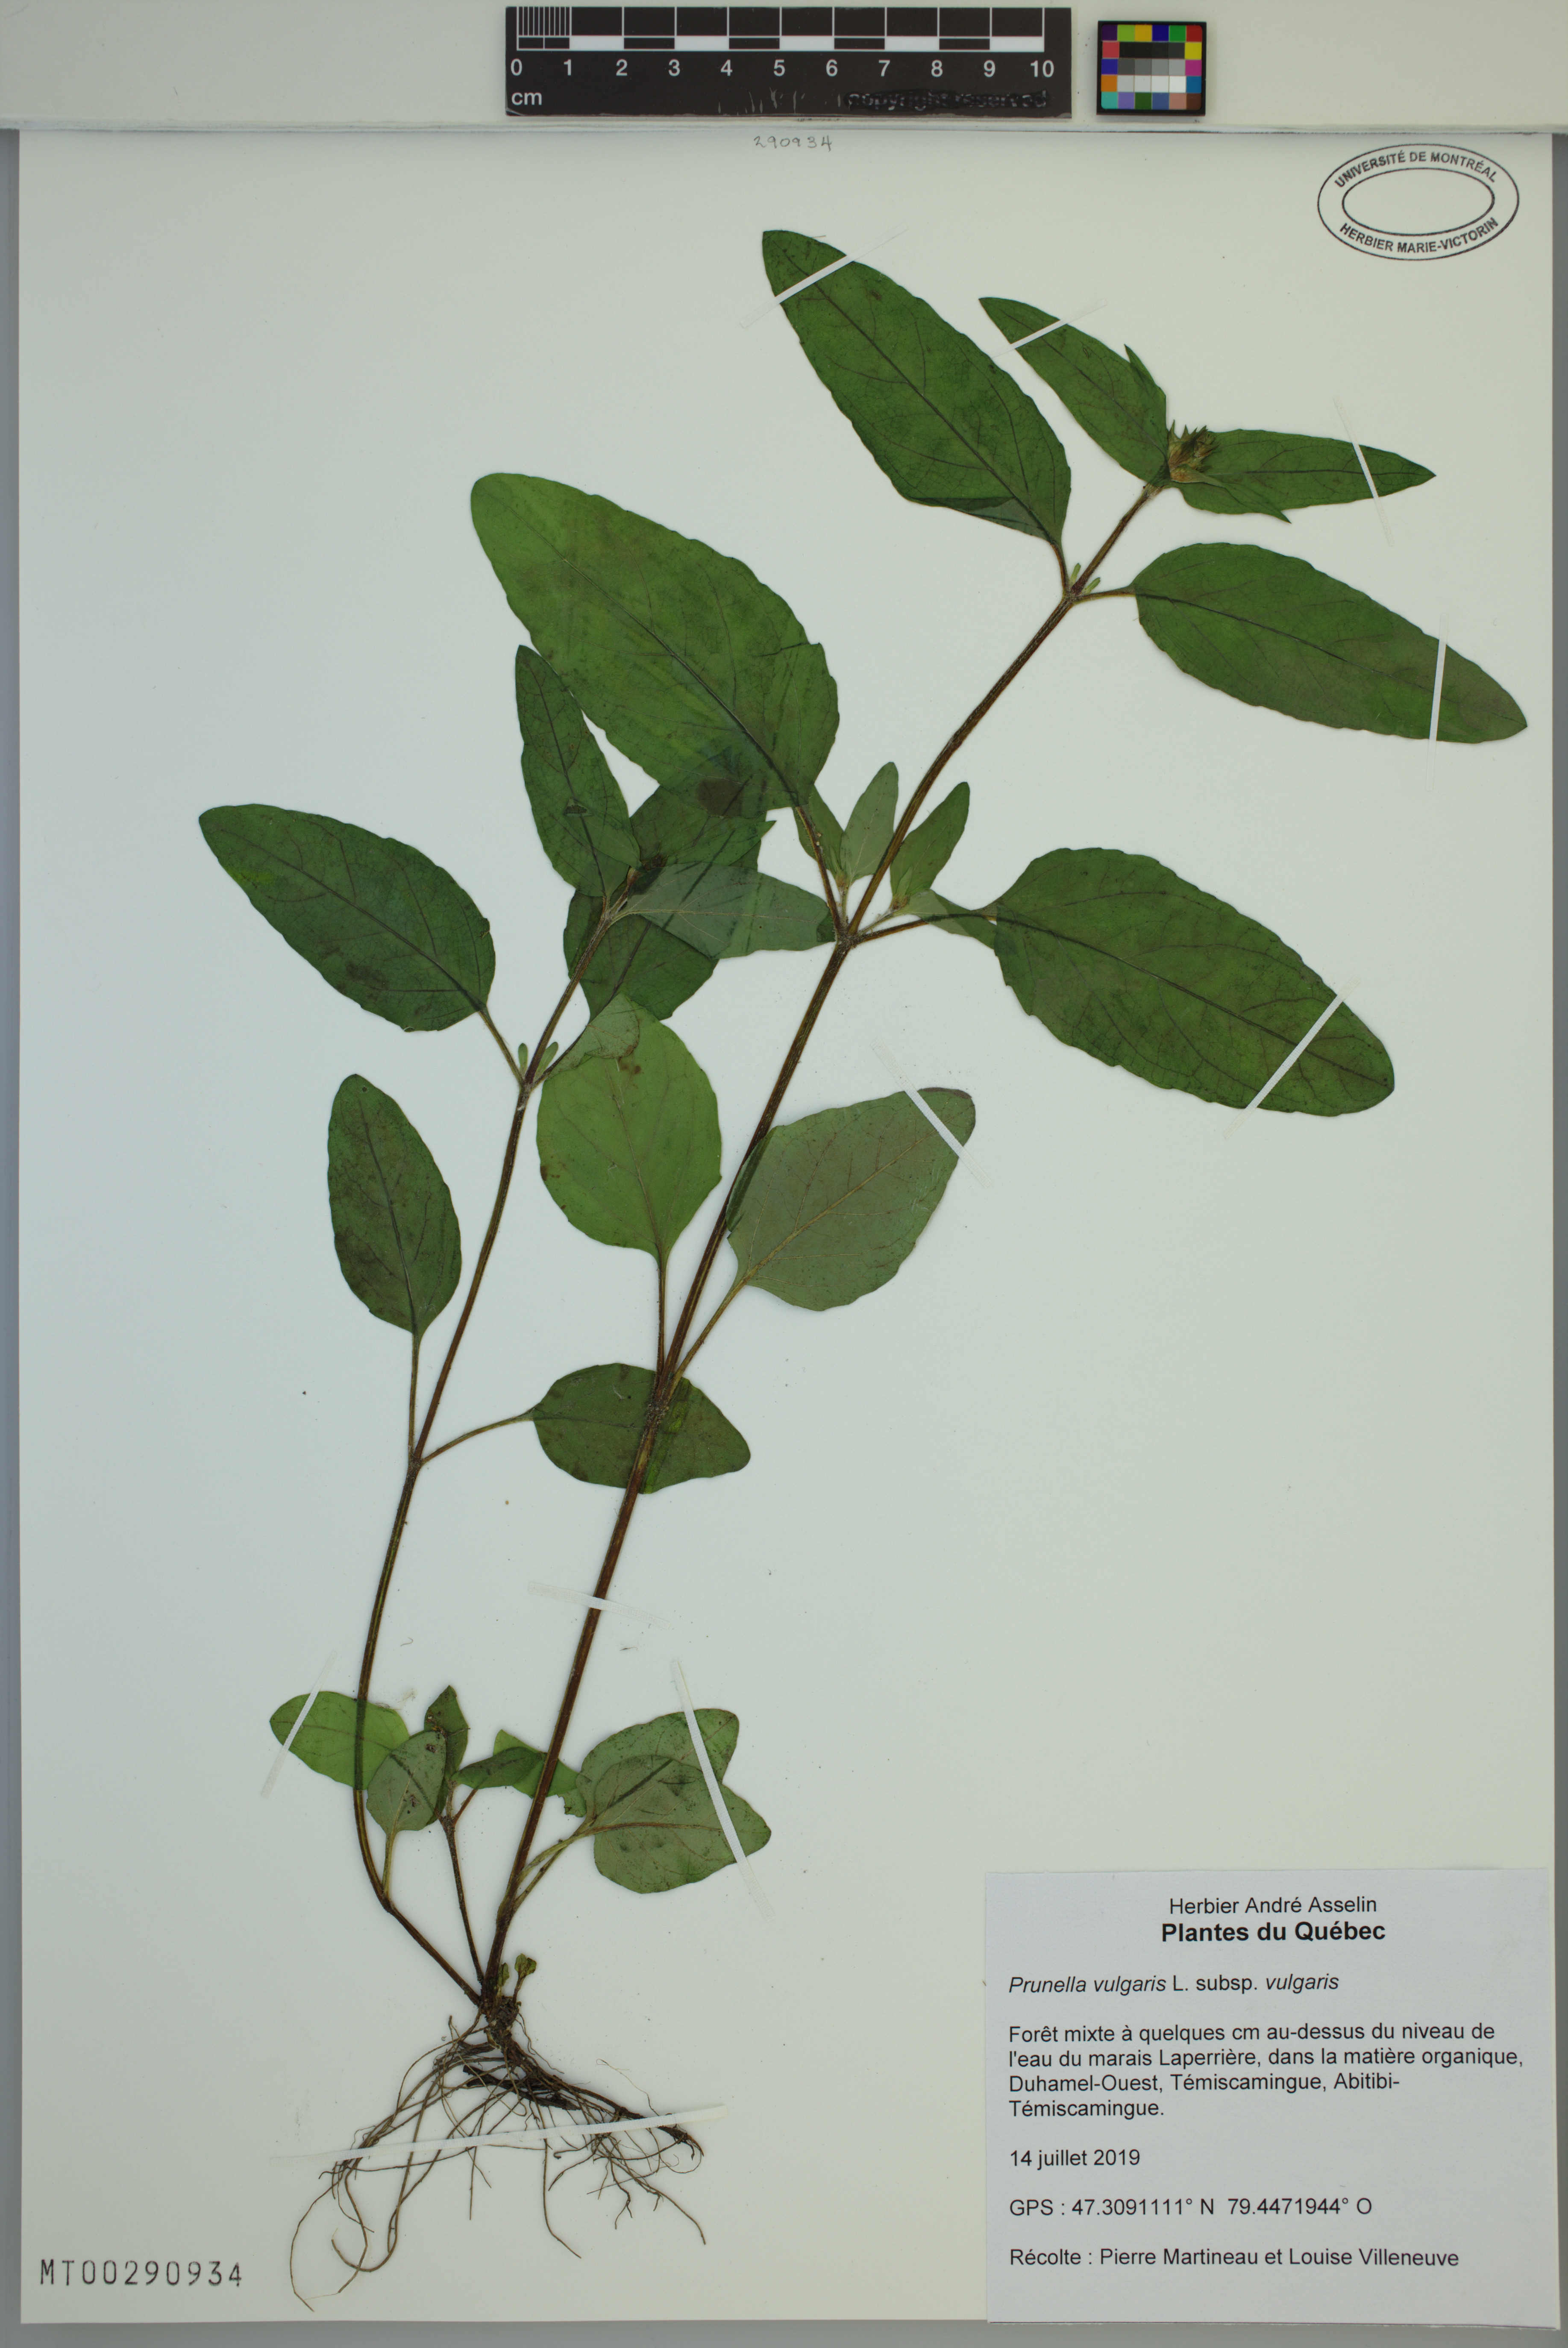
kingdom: Plantae
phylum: Tracheophyta
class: Magnoliopsida
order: Lamiales
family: Lamiaceae
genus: Prunella
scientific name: Prunella vulgaris
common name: Heal-all
